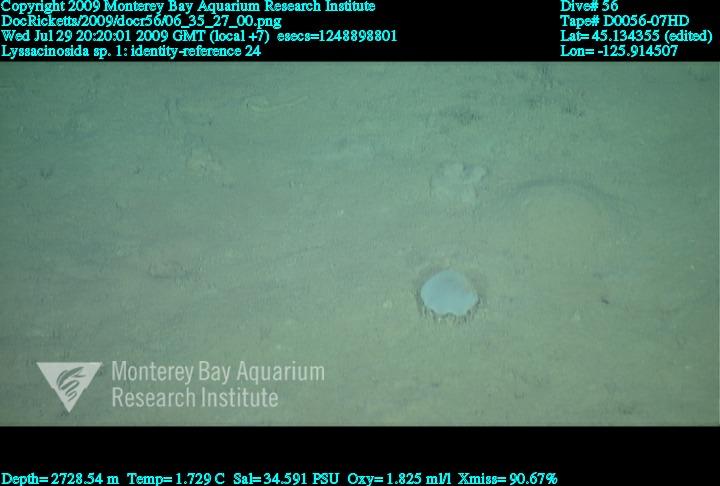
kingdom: Animalia
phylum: Porifera
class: Hexactinellida
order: Lyssacinosida
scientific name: Lyssacinosida
